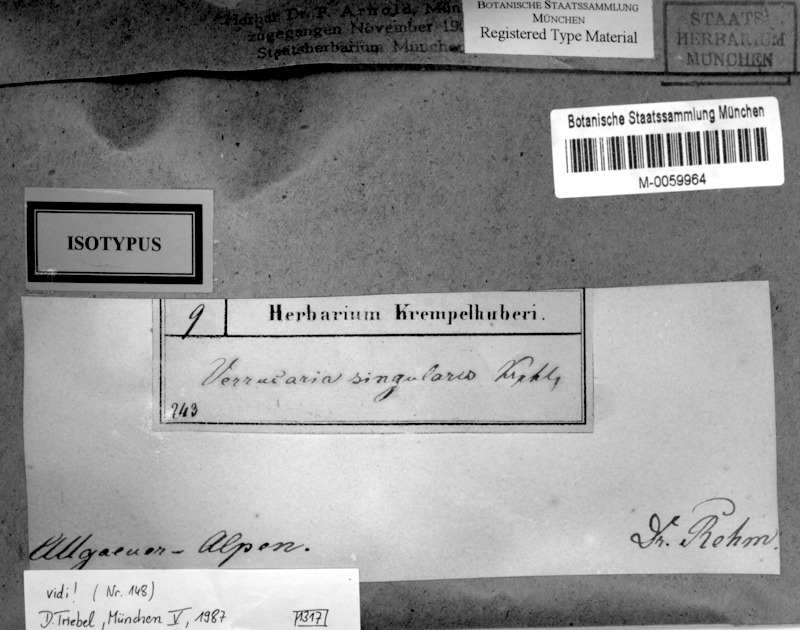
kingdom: Fungi
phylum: Ascomycota
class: Eurotiomycetes
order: Verrucariales
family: Verrucariaceae
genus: Polyblastia
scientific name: Polyblastia singularis
